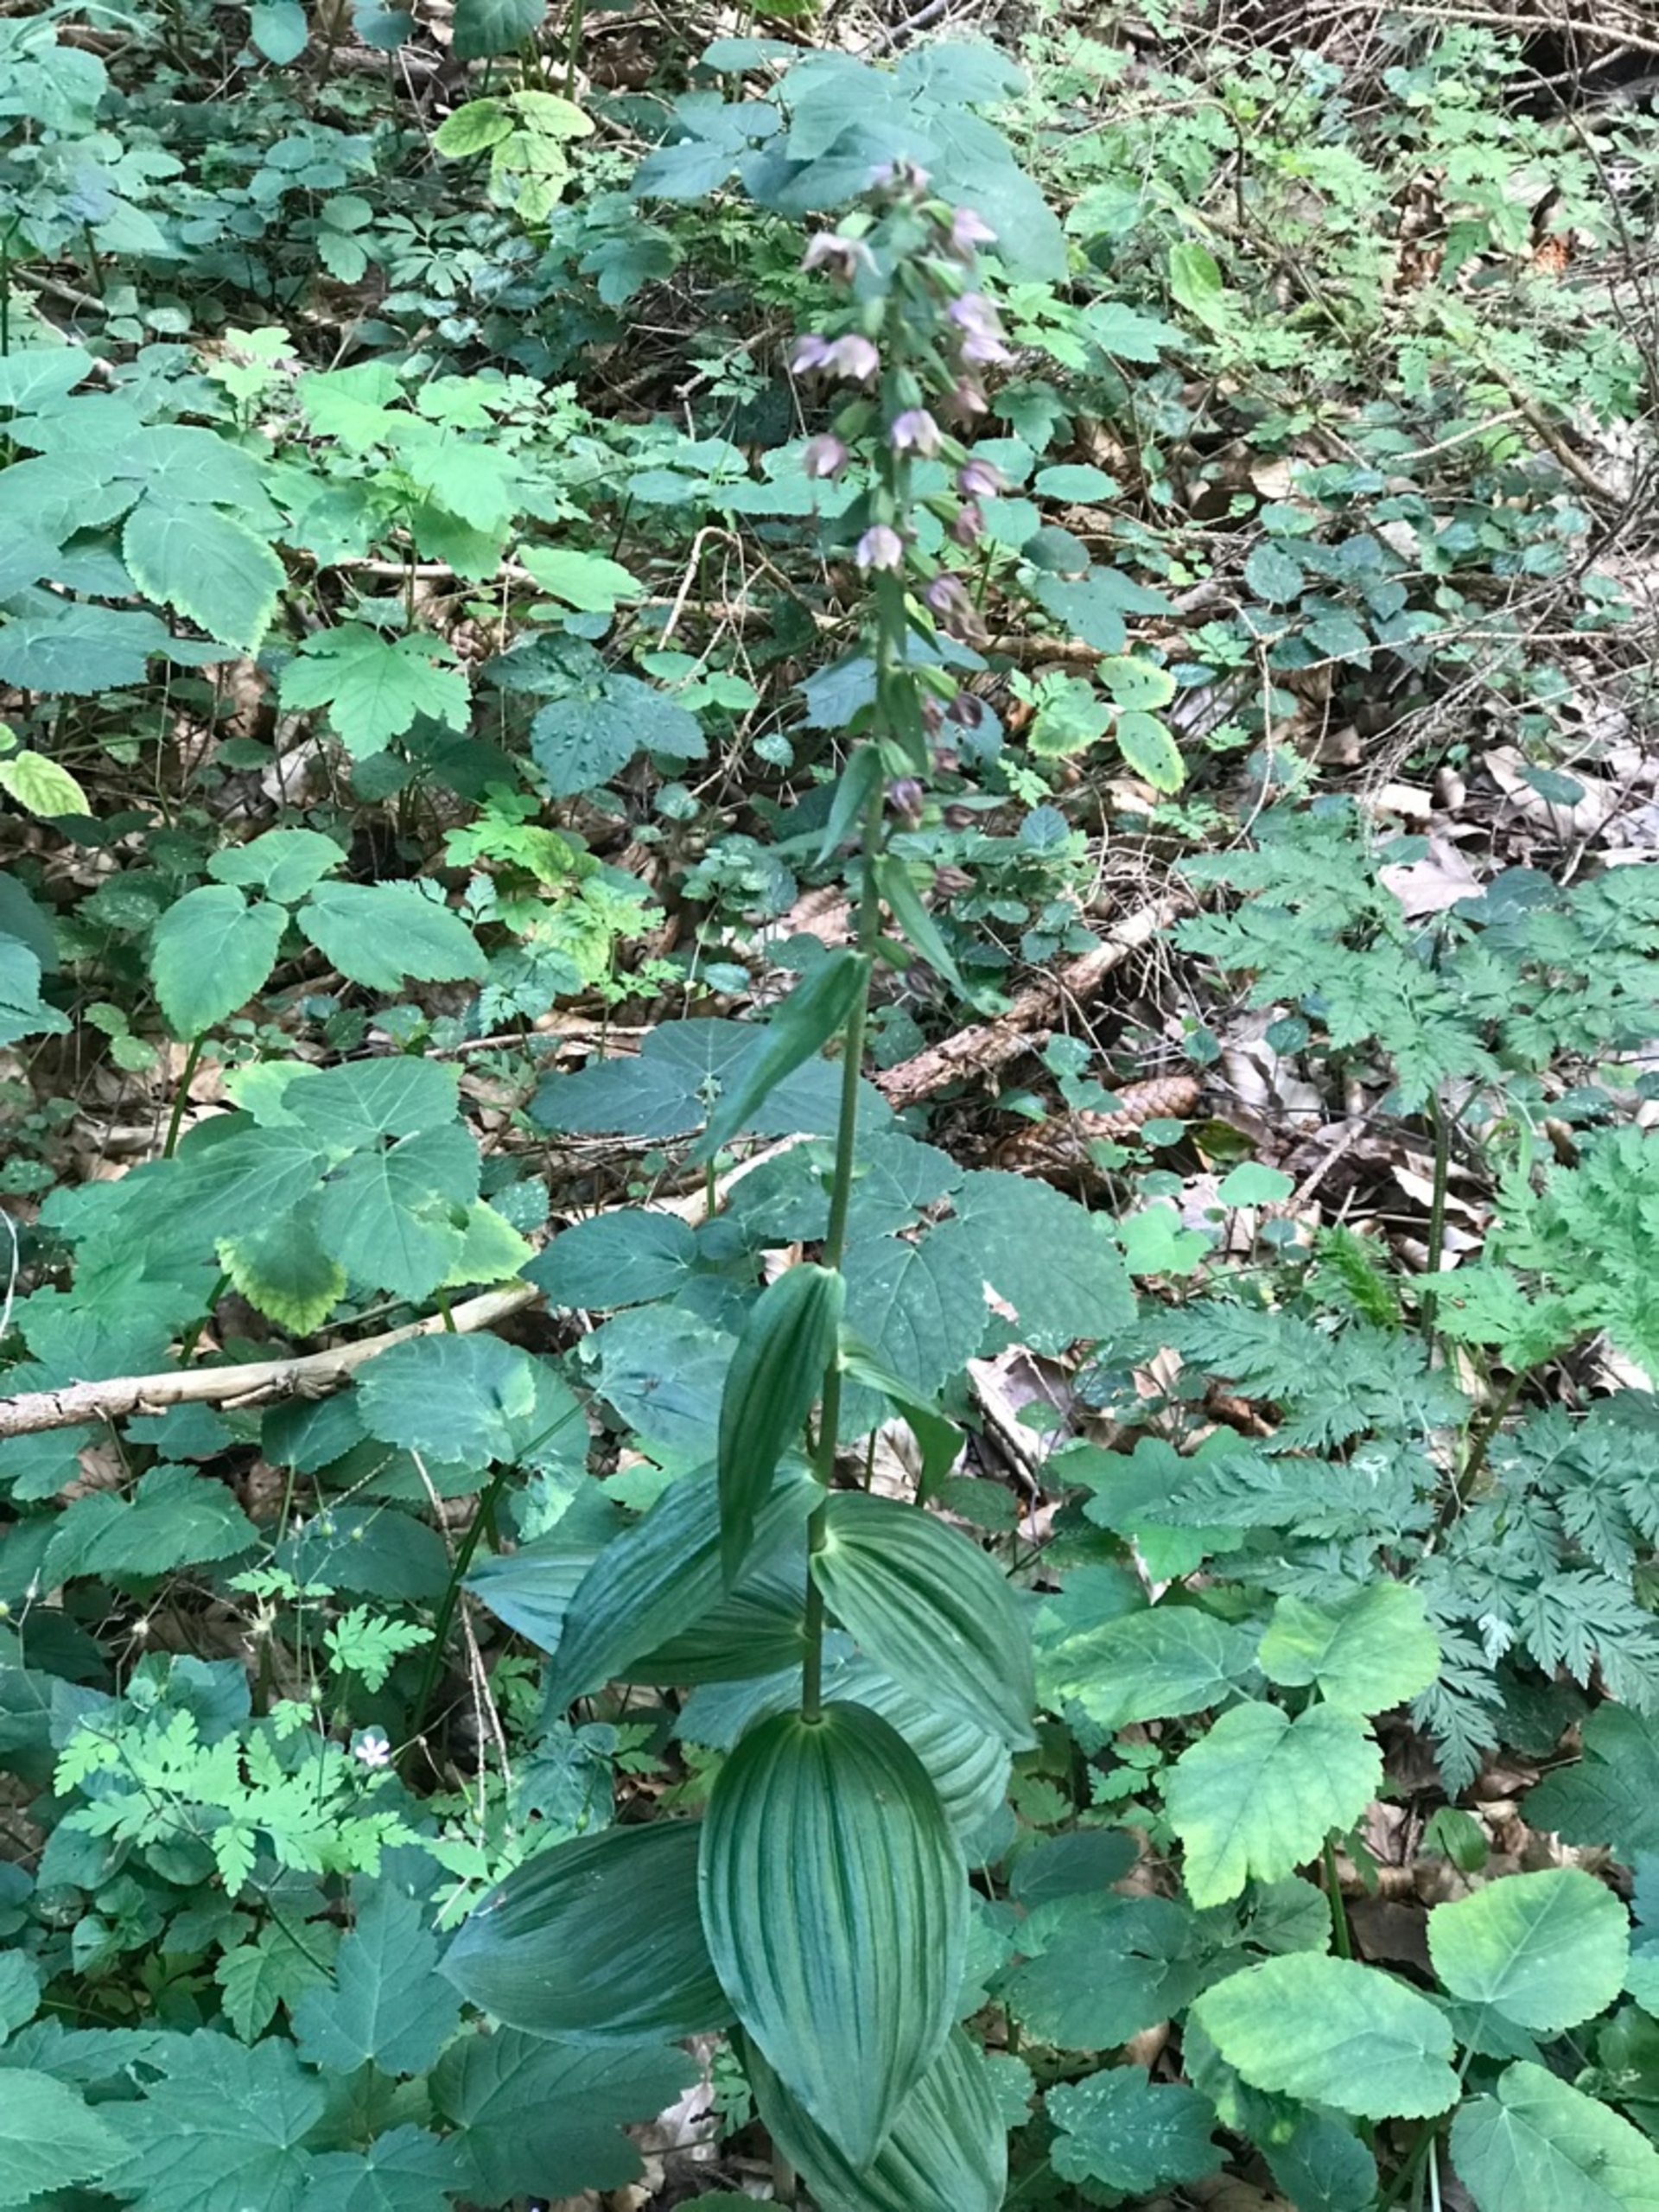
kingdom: Plantae
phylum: Tracheophyta
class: Liliopsida
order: Asparagales
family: Orchidaceae
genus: Epipactis
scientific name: Epipactis helleborine
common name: Skov-hullæbe
